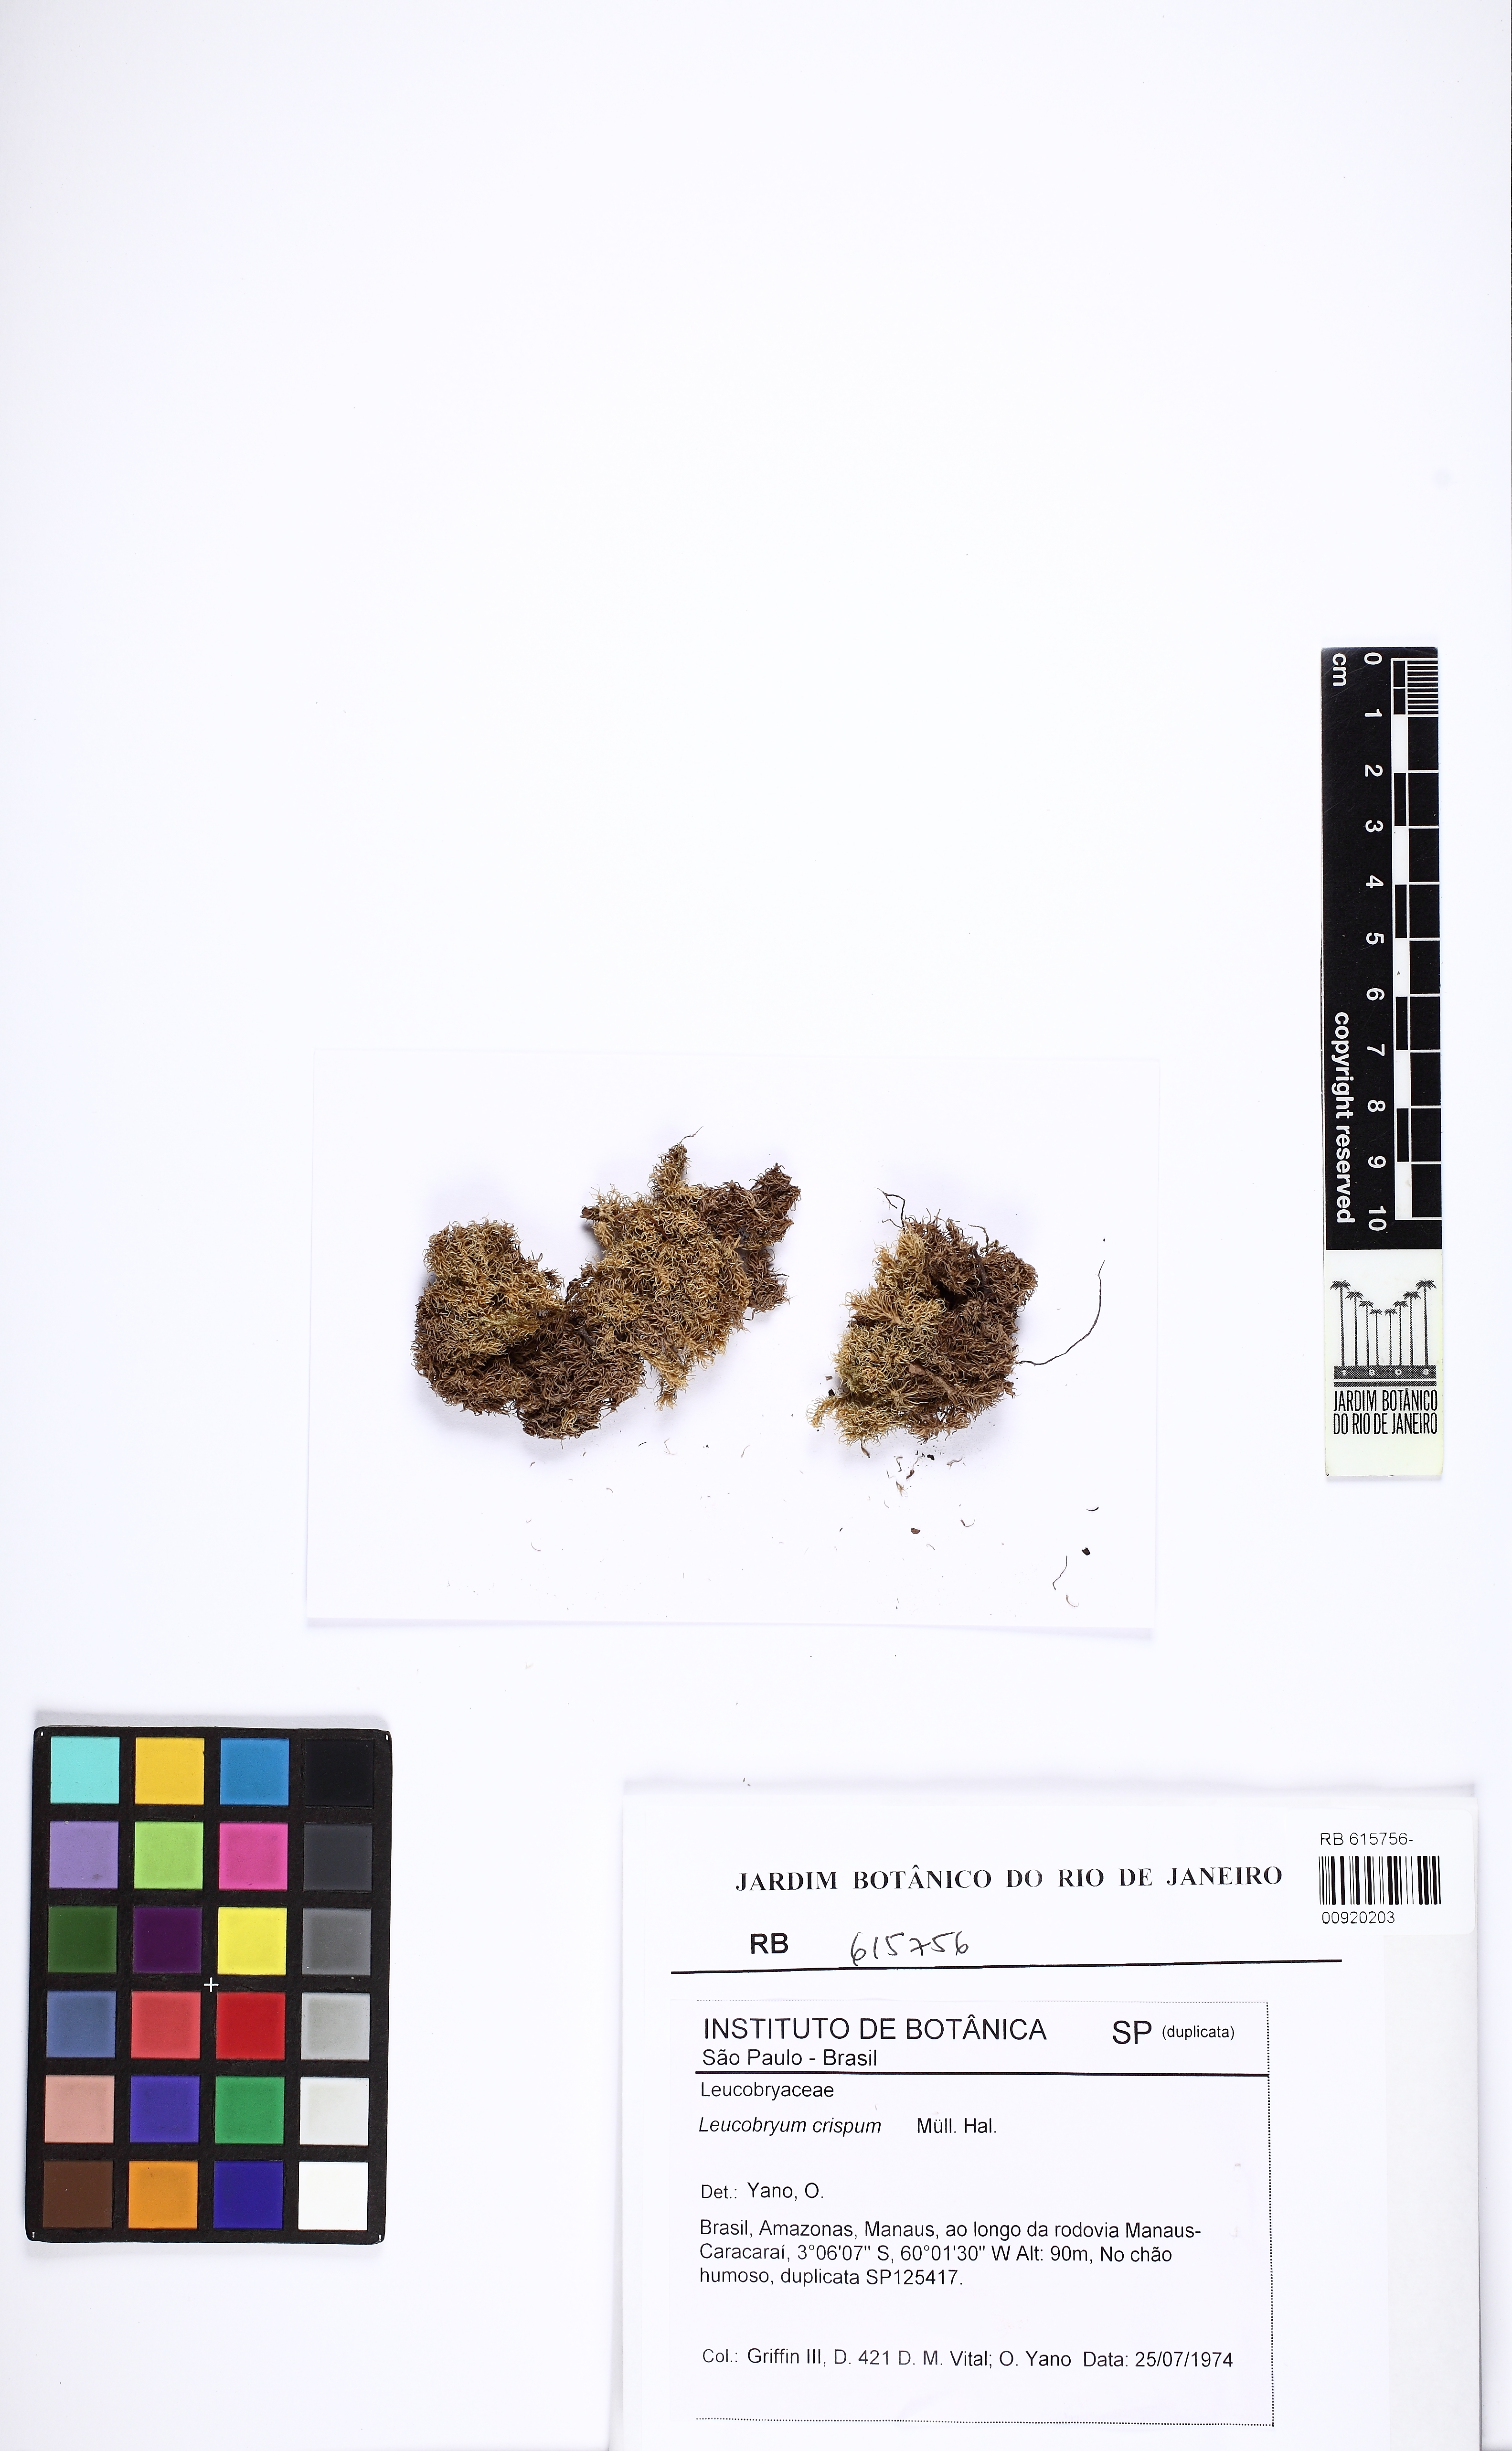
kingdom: Plantae
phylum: Bryophyta
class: Bryopsida
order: Dicranales
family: Leucobryaceae
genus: Leucobryum
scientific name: Leucobryum crispum
